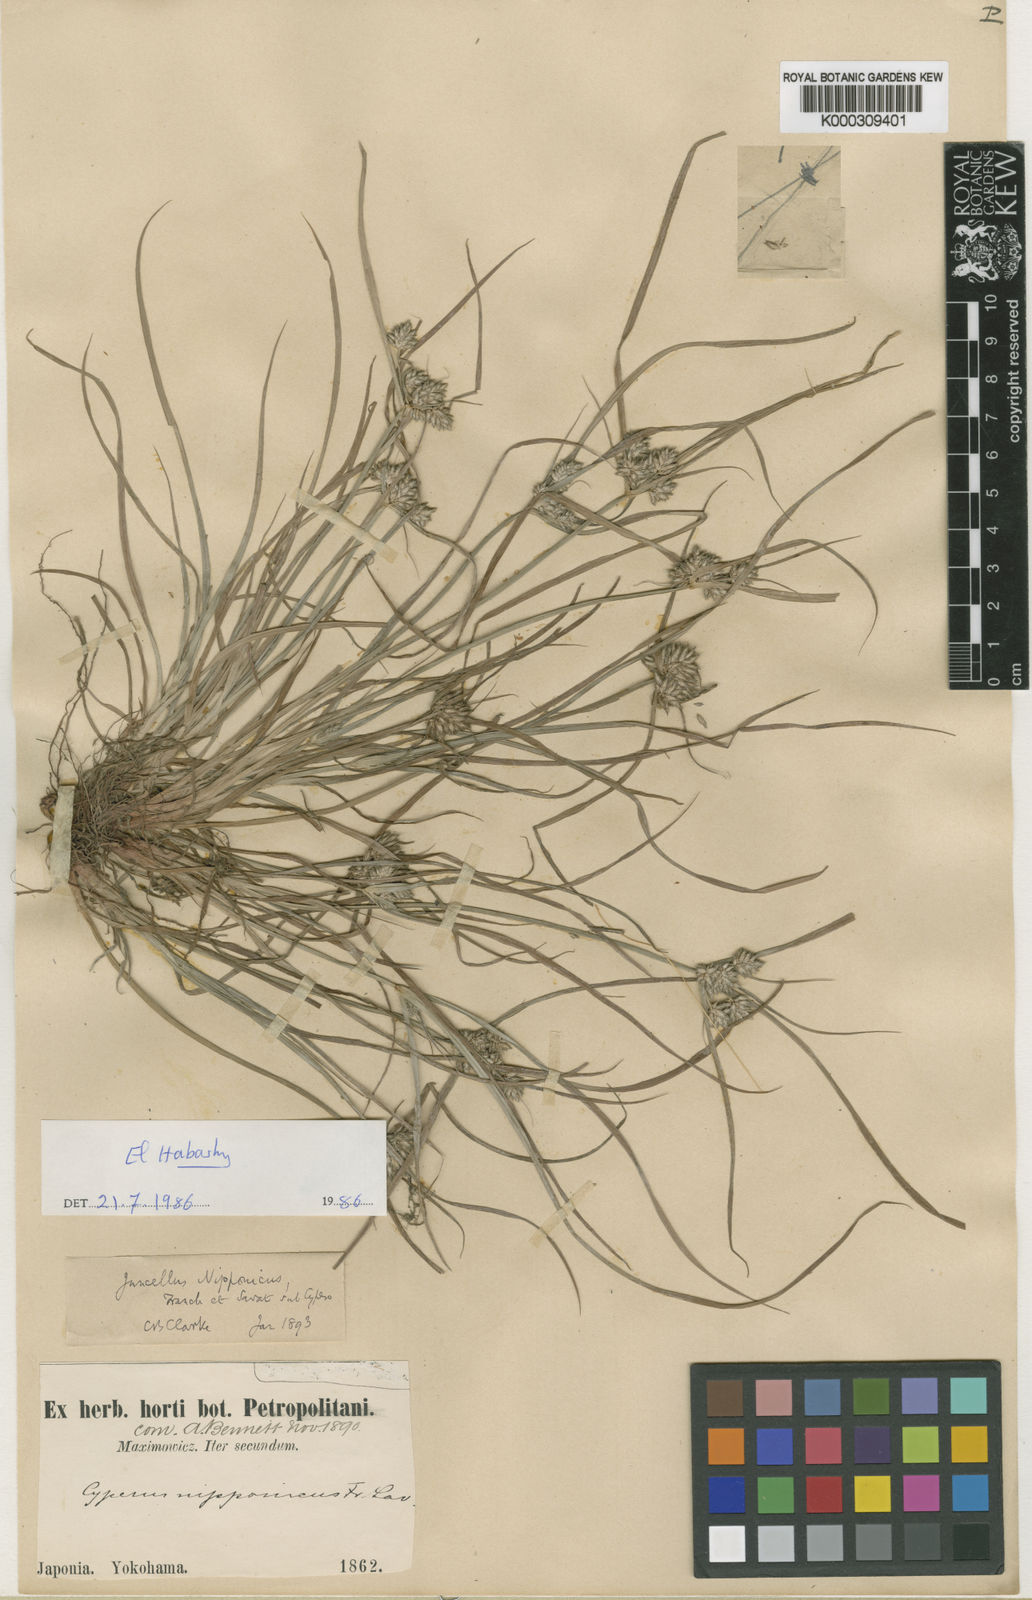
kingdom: Plantae
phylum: Tracheophyta
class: Liliopsida
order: Poales
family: Cyperaceae
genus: Cyperus
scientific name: Cyperus nipponicus
